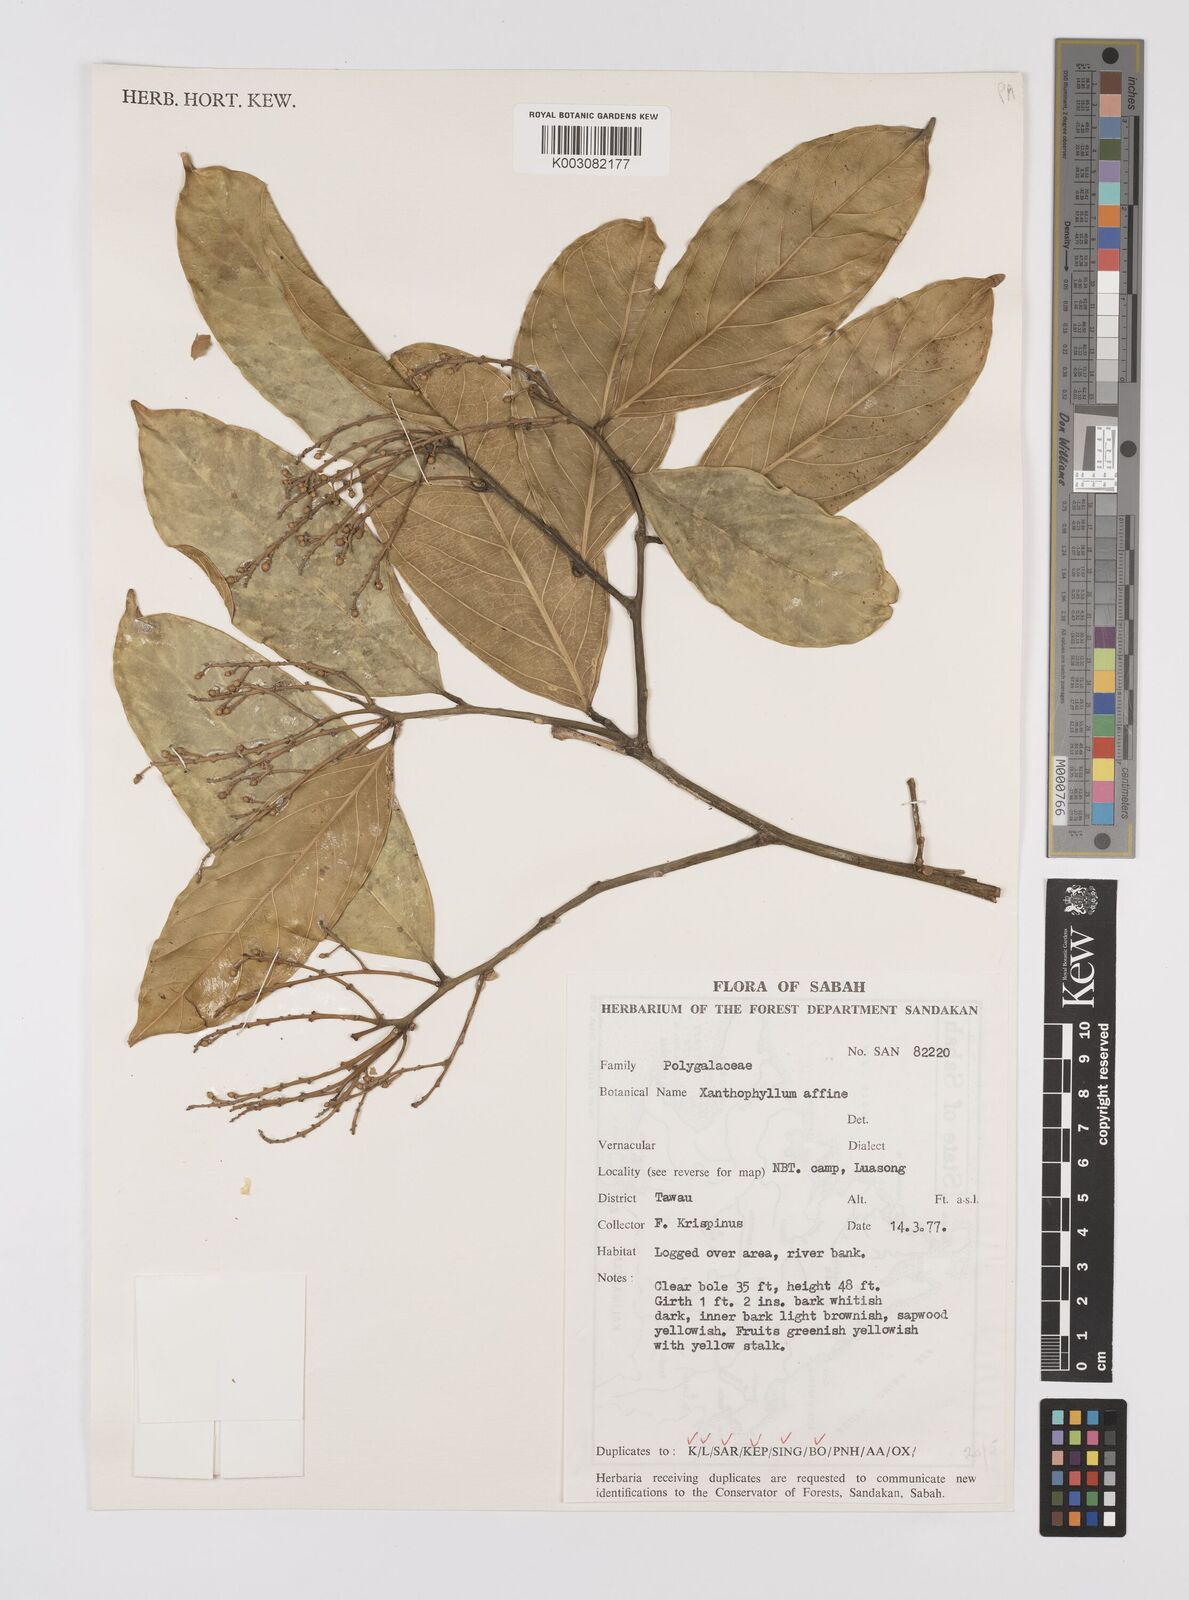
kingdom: Plantae
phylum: Tracheophyta
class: Magnoliopsida
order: Fabales
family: Polygalaceae
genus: Xanthophyllum
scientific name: Xanthophyllum flavescens
